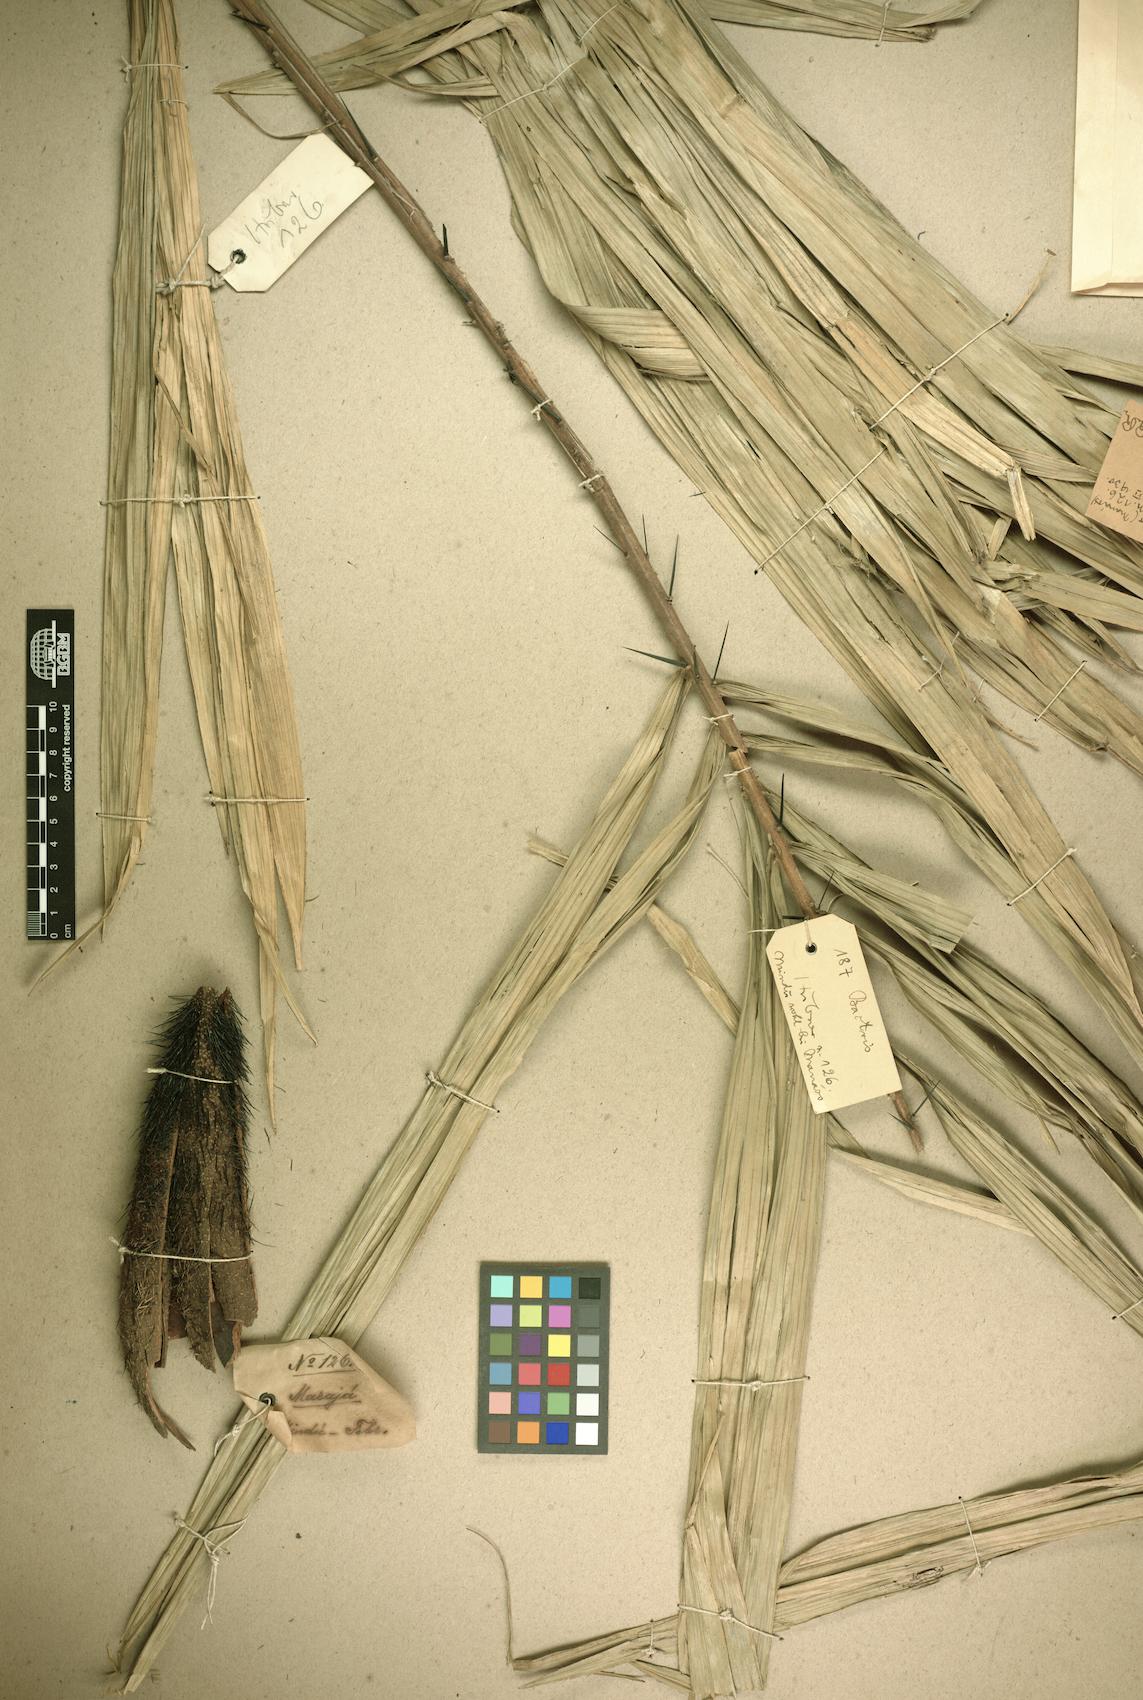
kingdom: Plantae
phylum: Tracheophyta
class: Liliopsida
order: Arecales
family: Arecaceae
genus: Bactris
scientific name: Bactris acanthocarpa
